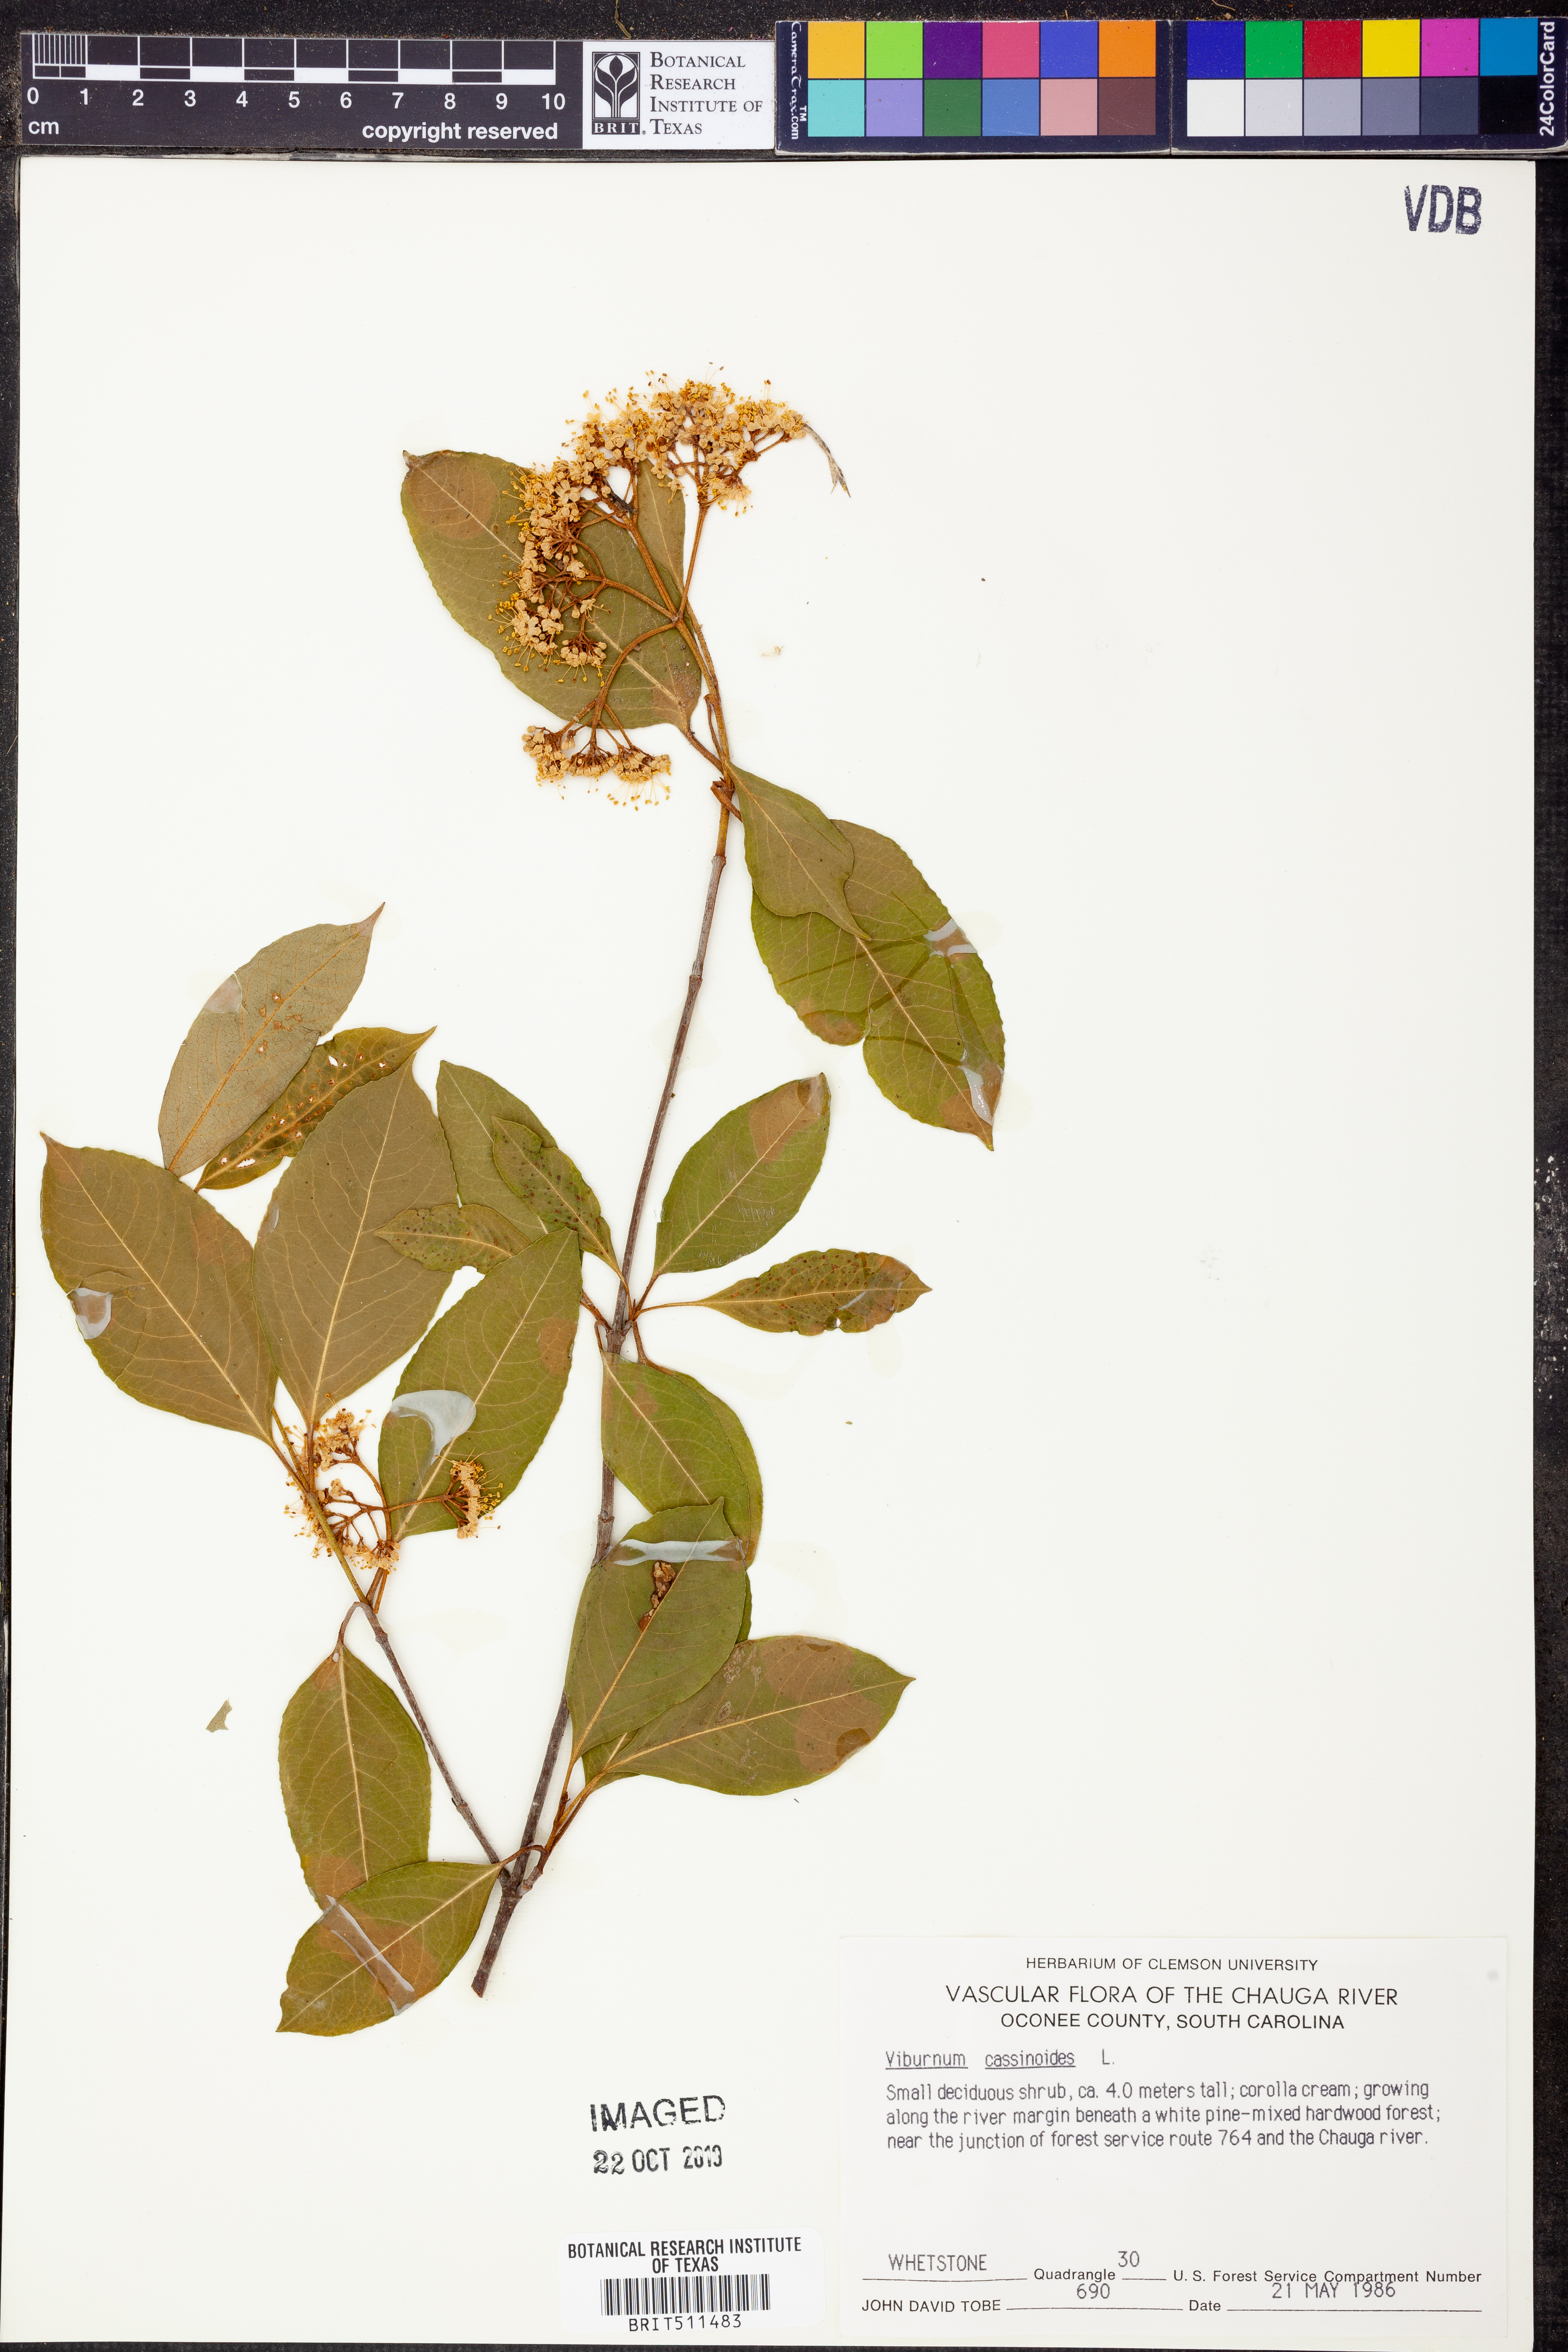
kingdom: Plantae
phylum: Tracheophyta
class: Magnoliopsida
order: Dipsacales
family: Viburnaceae
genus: Viburnum
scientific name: Viburnum cassinoides
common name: Swamp haw
